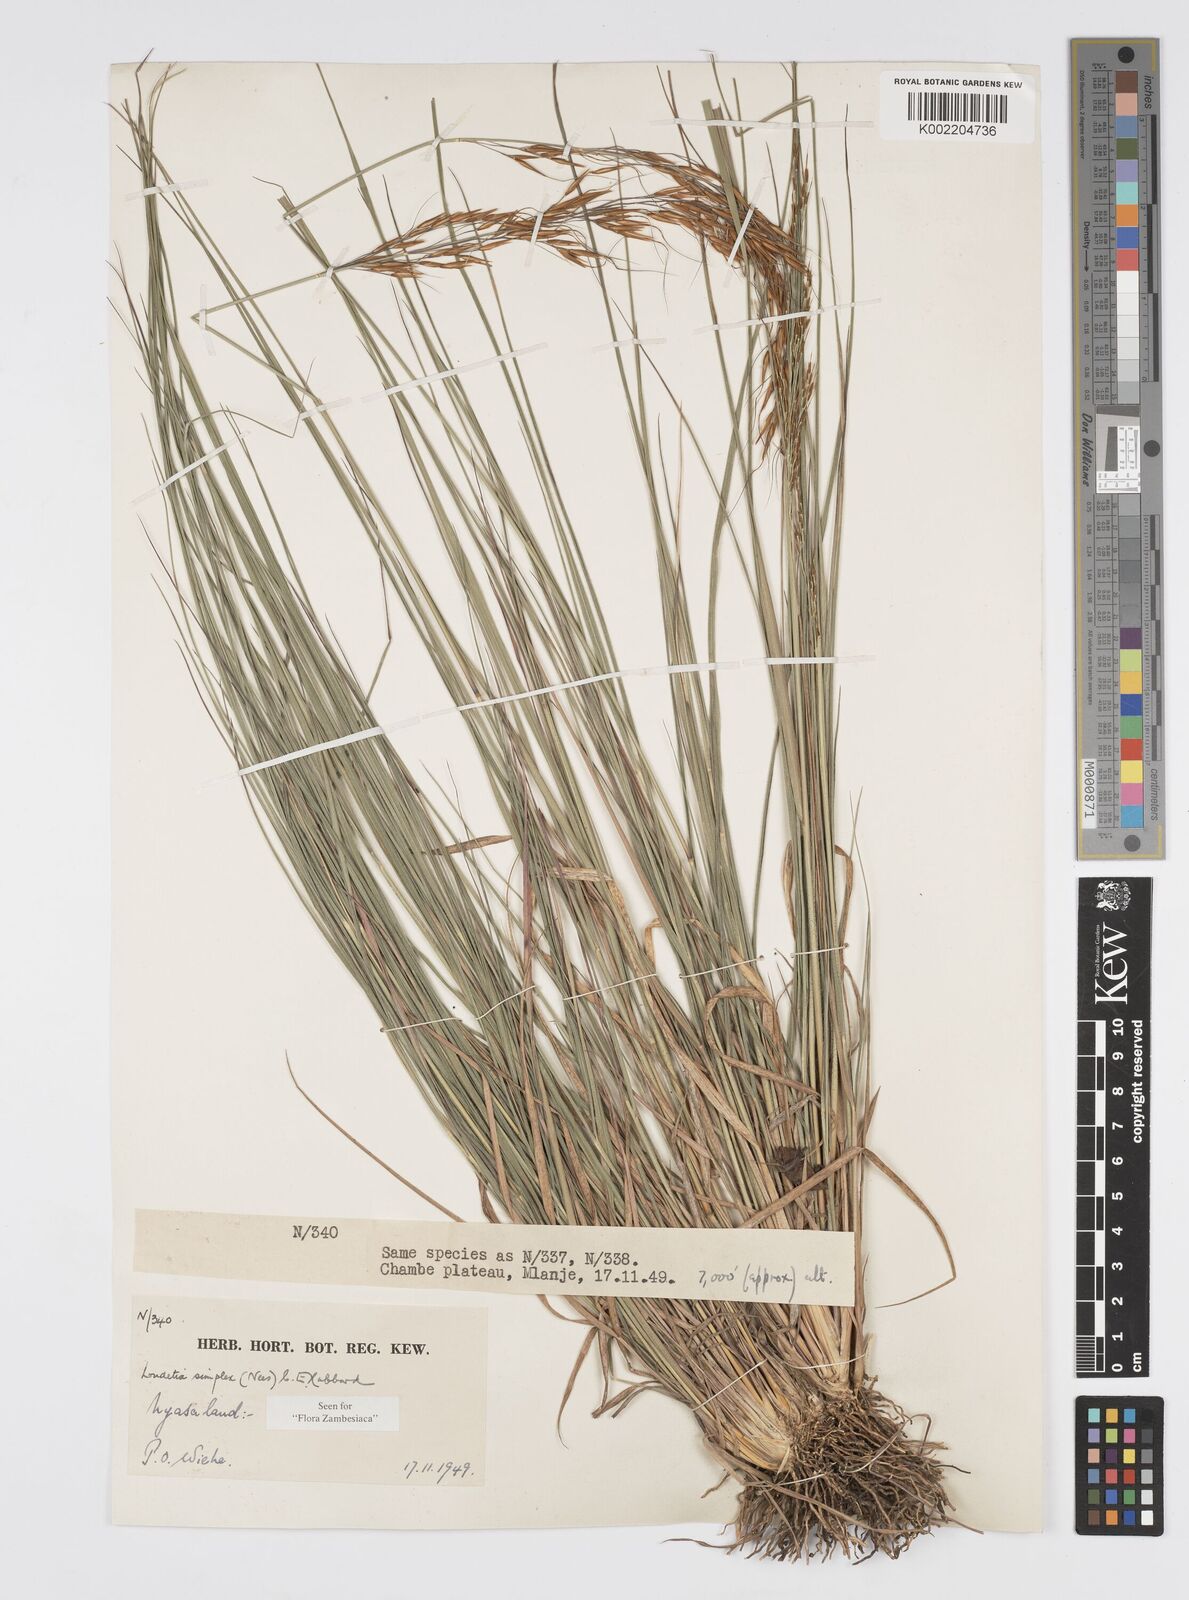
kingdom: Plantae
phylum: Tracheophyta
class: Liliopsida
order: Poales
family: Poaceae
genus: Loudetia
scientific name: Loudetia simplex
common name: Common russet grass
